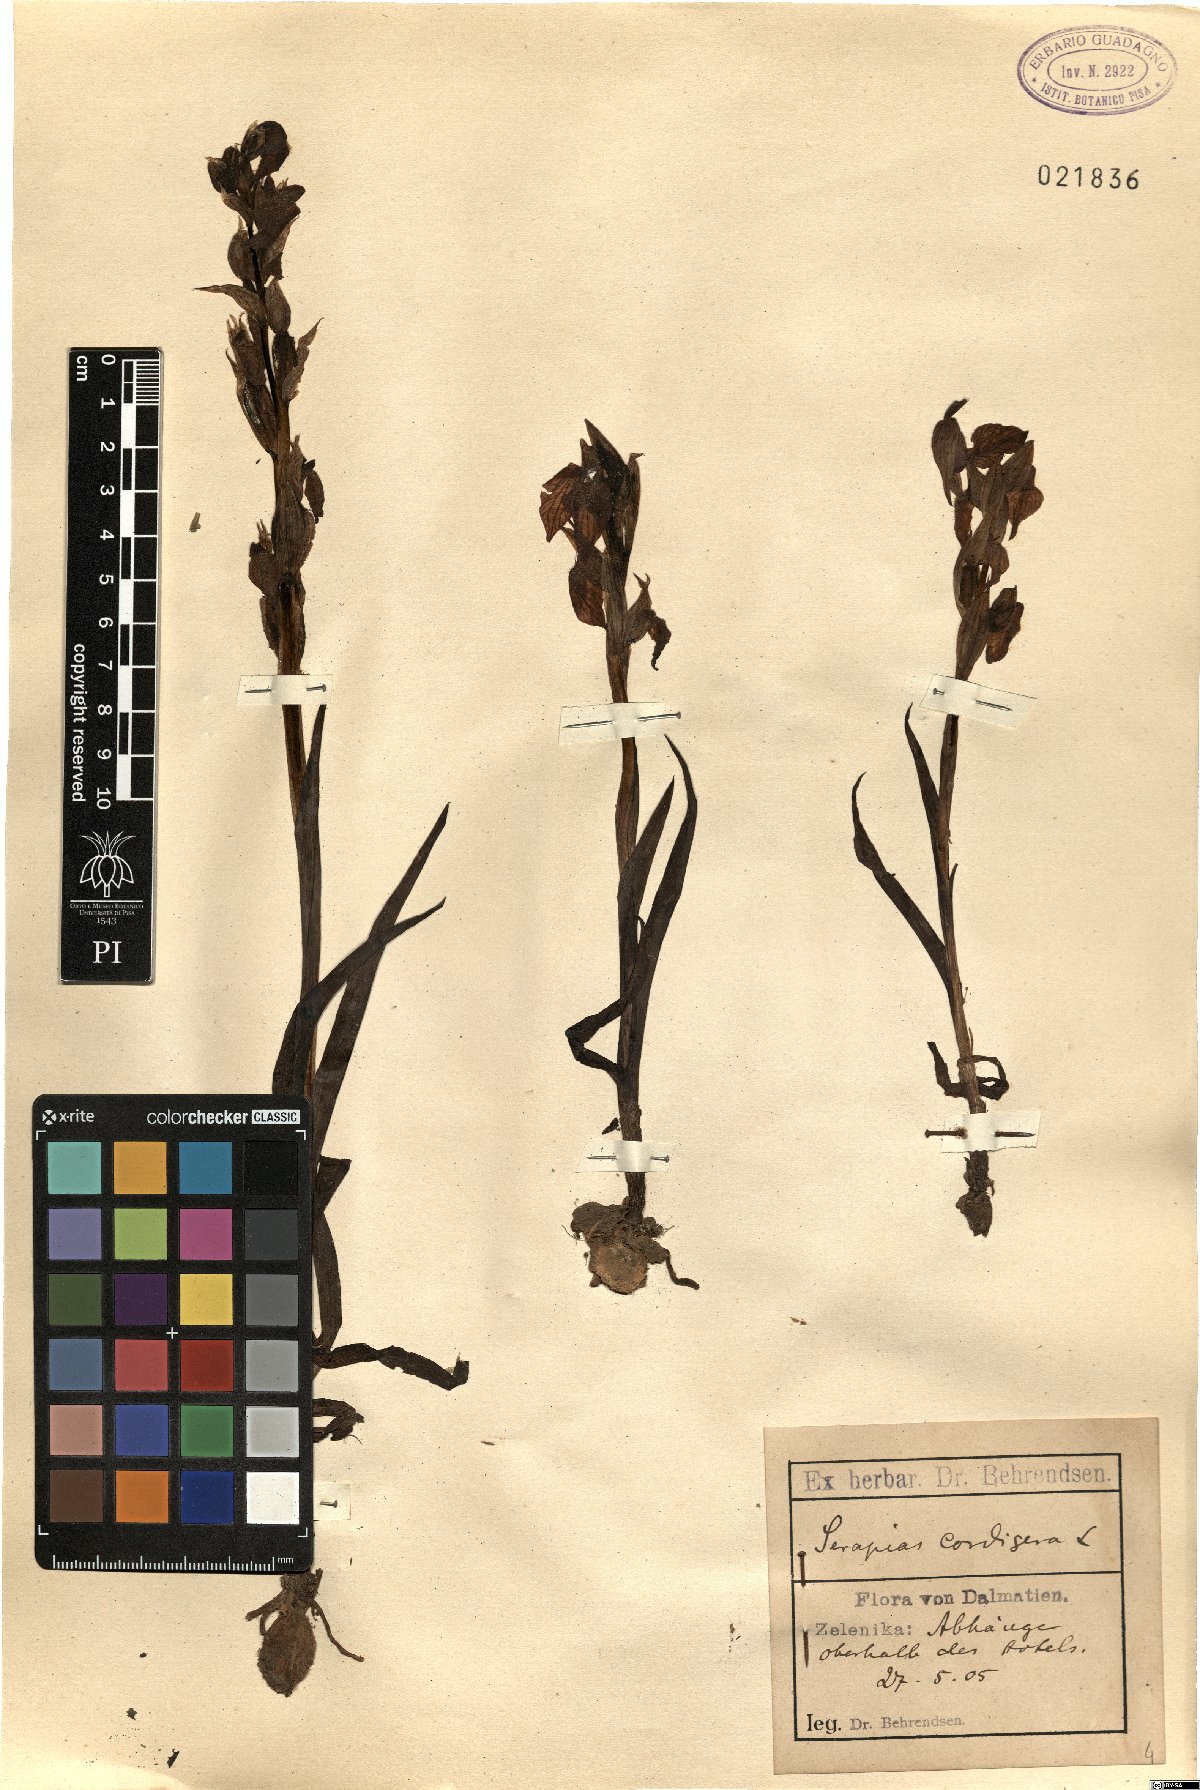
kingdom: Plantae
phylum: Tracheophyta
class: Liliopsida
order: Asparagales
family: Orchidaceae
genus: Serapias
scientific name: Serapias cordigera
